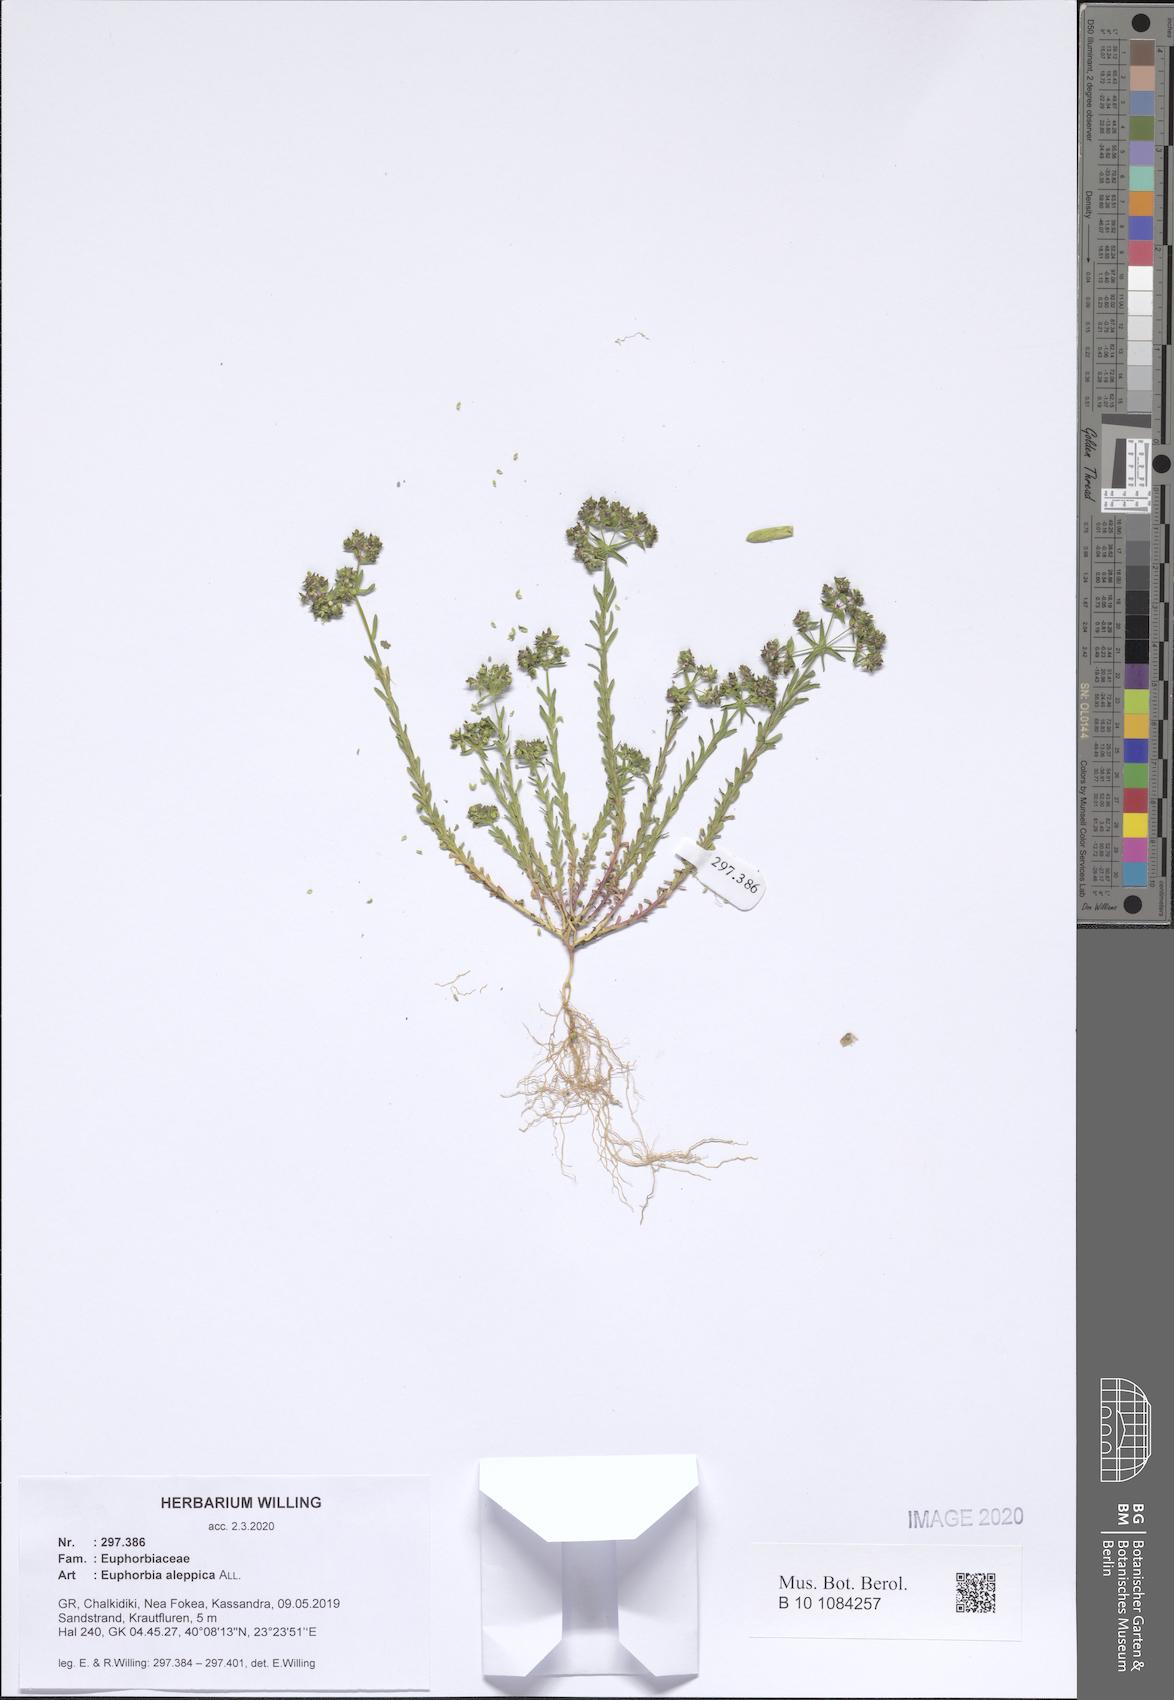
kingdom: Plantae
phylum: Tracheophyta
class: Magnoliopsida
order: Malpighiales
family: Euphorbiaceae
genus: Euphorbia
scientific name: Euphorbia aleppica
